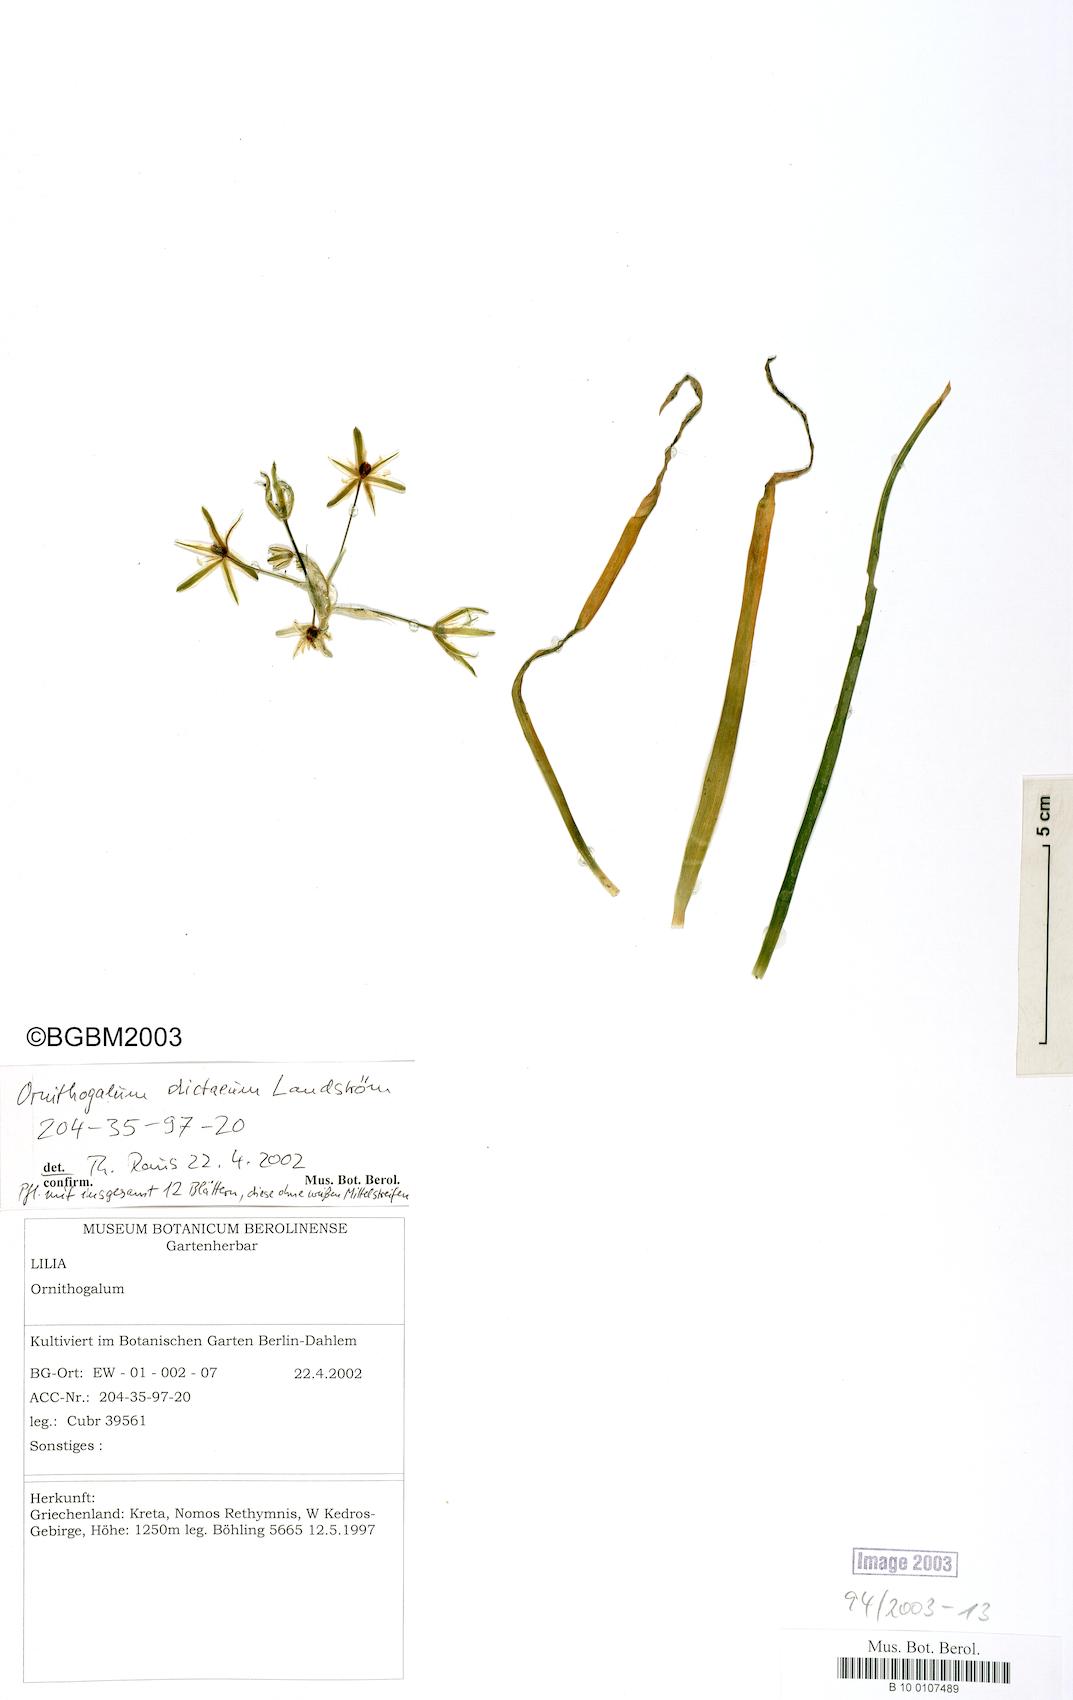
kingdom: Plantae
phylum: Tracheophyta
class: Liliopsida
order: Asparagales
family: Asparagaceae
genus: Ornithogalum
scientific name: Ornithogalum dictaeum
